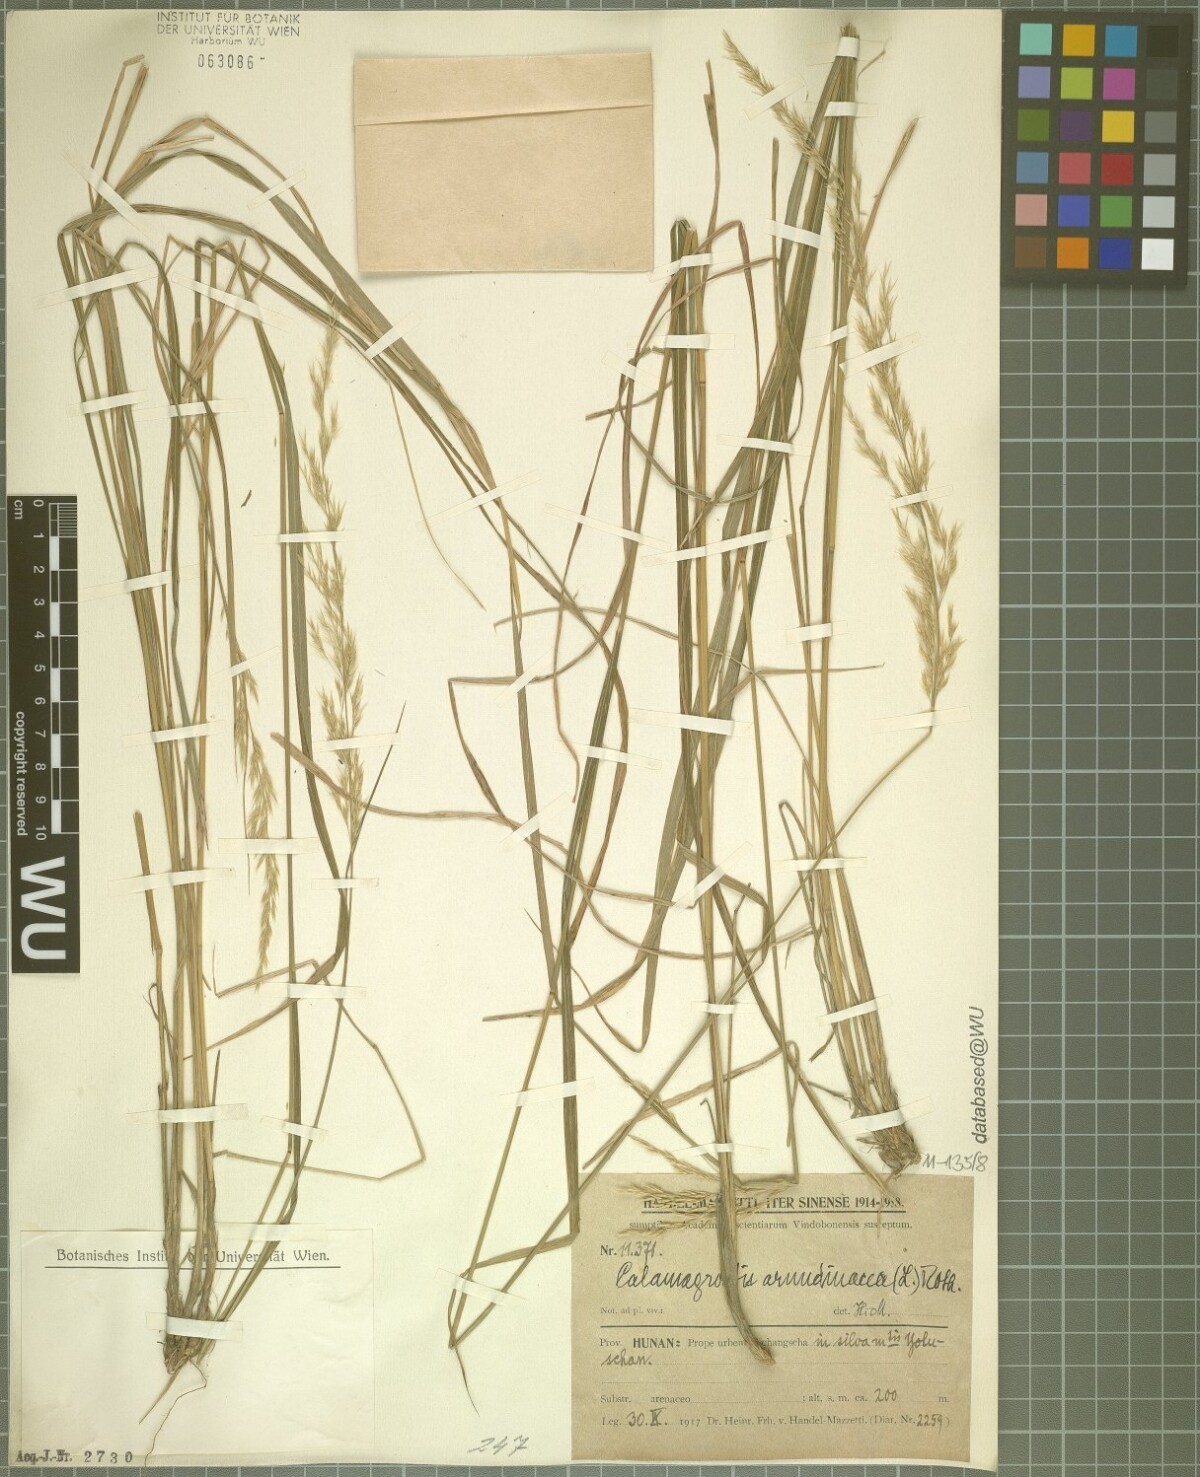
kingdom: Plantae
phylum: Tracheophyta
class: Liliopsida
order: Poales
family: Poaceae
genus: Calamagrostis
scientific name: Calamagrostis arundinacea
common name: Metskastik
